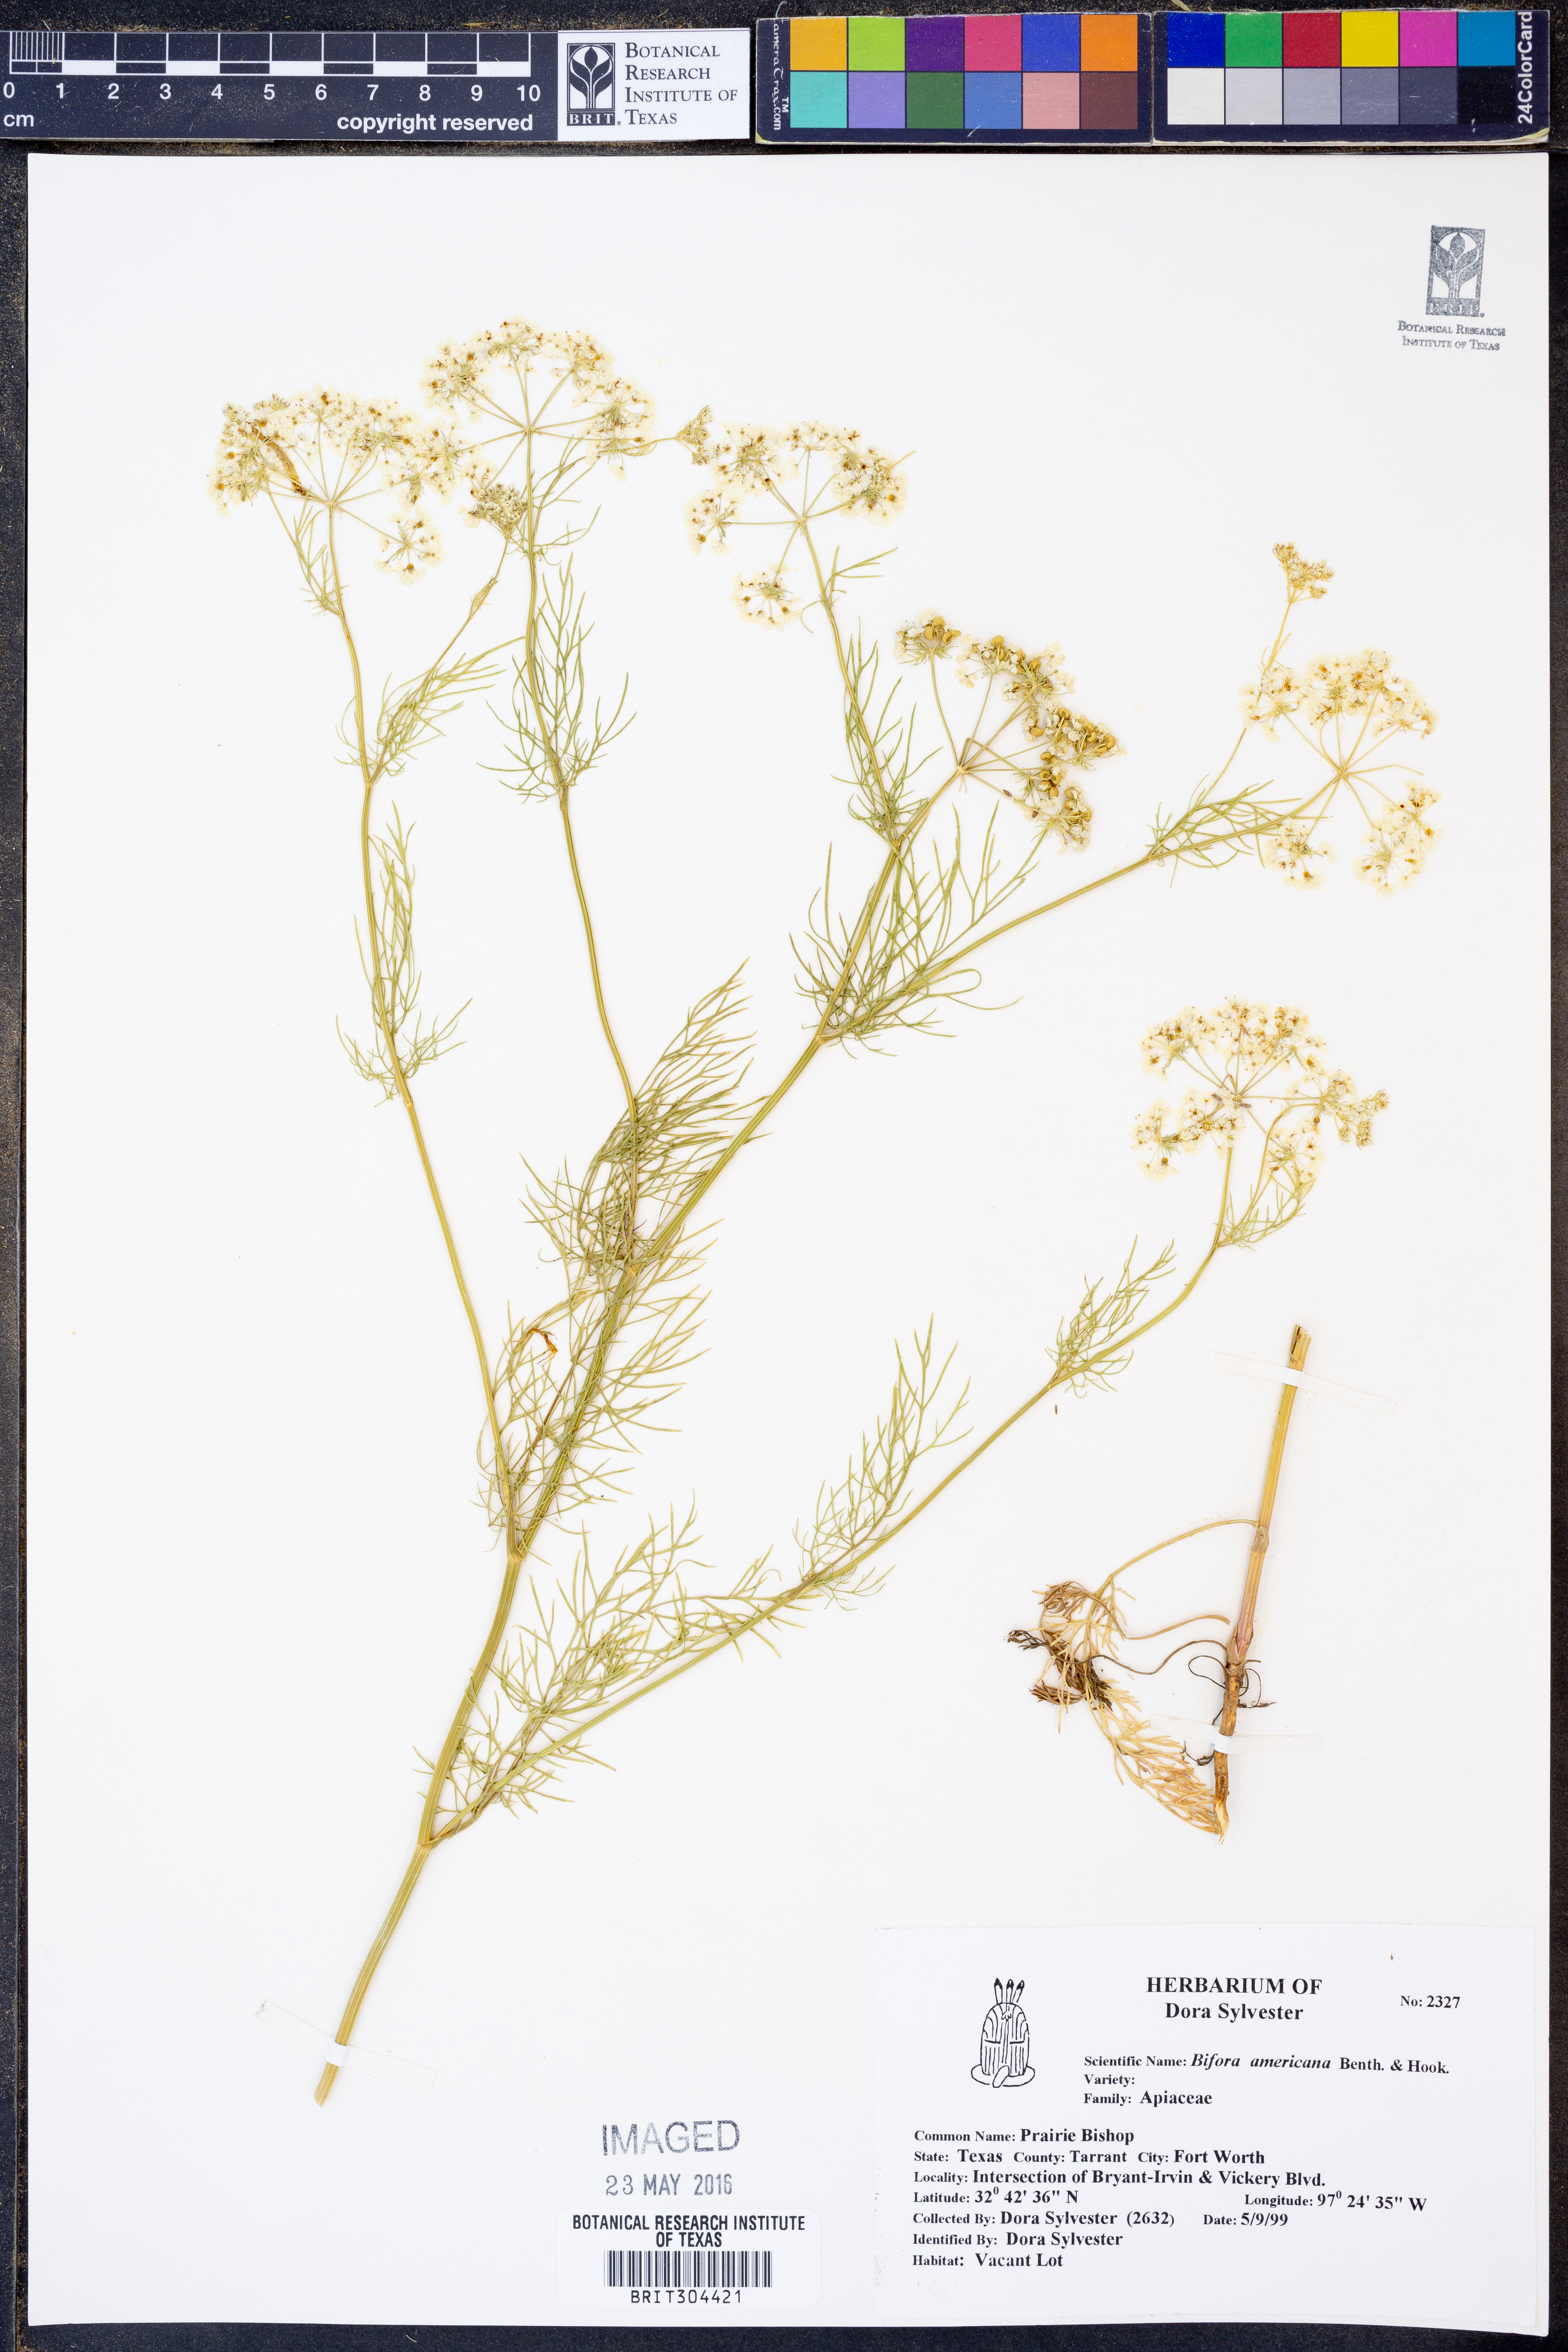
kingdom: Plantae
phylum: Tracheophyta
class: Magnoliopsida
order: Apiales
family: Apiaceae
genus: Atrema
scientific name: Atrema americanum
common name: Prairie-bishop
